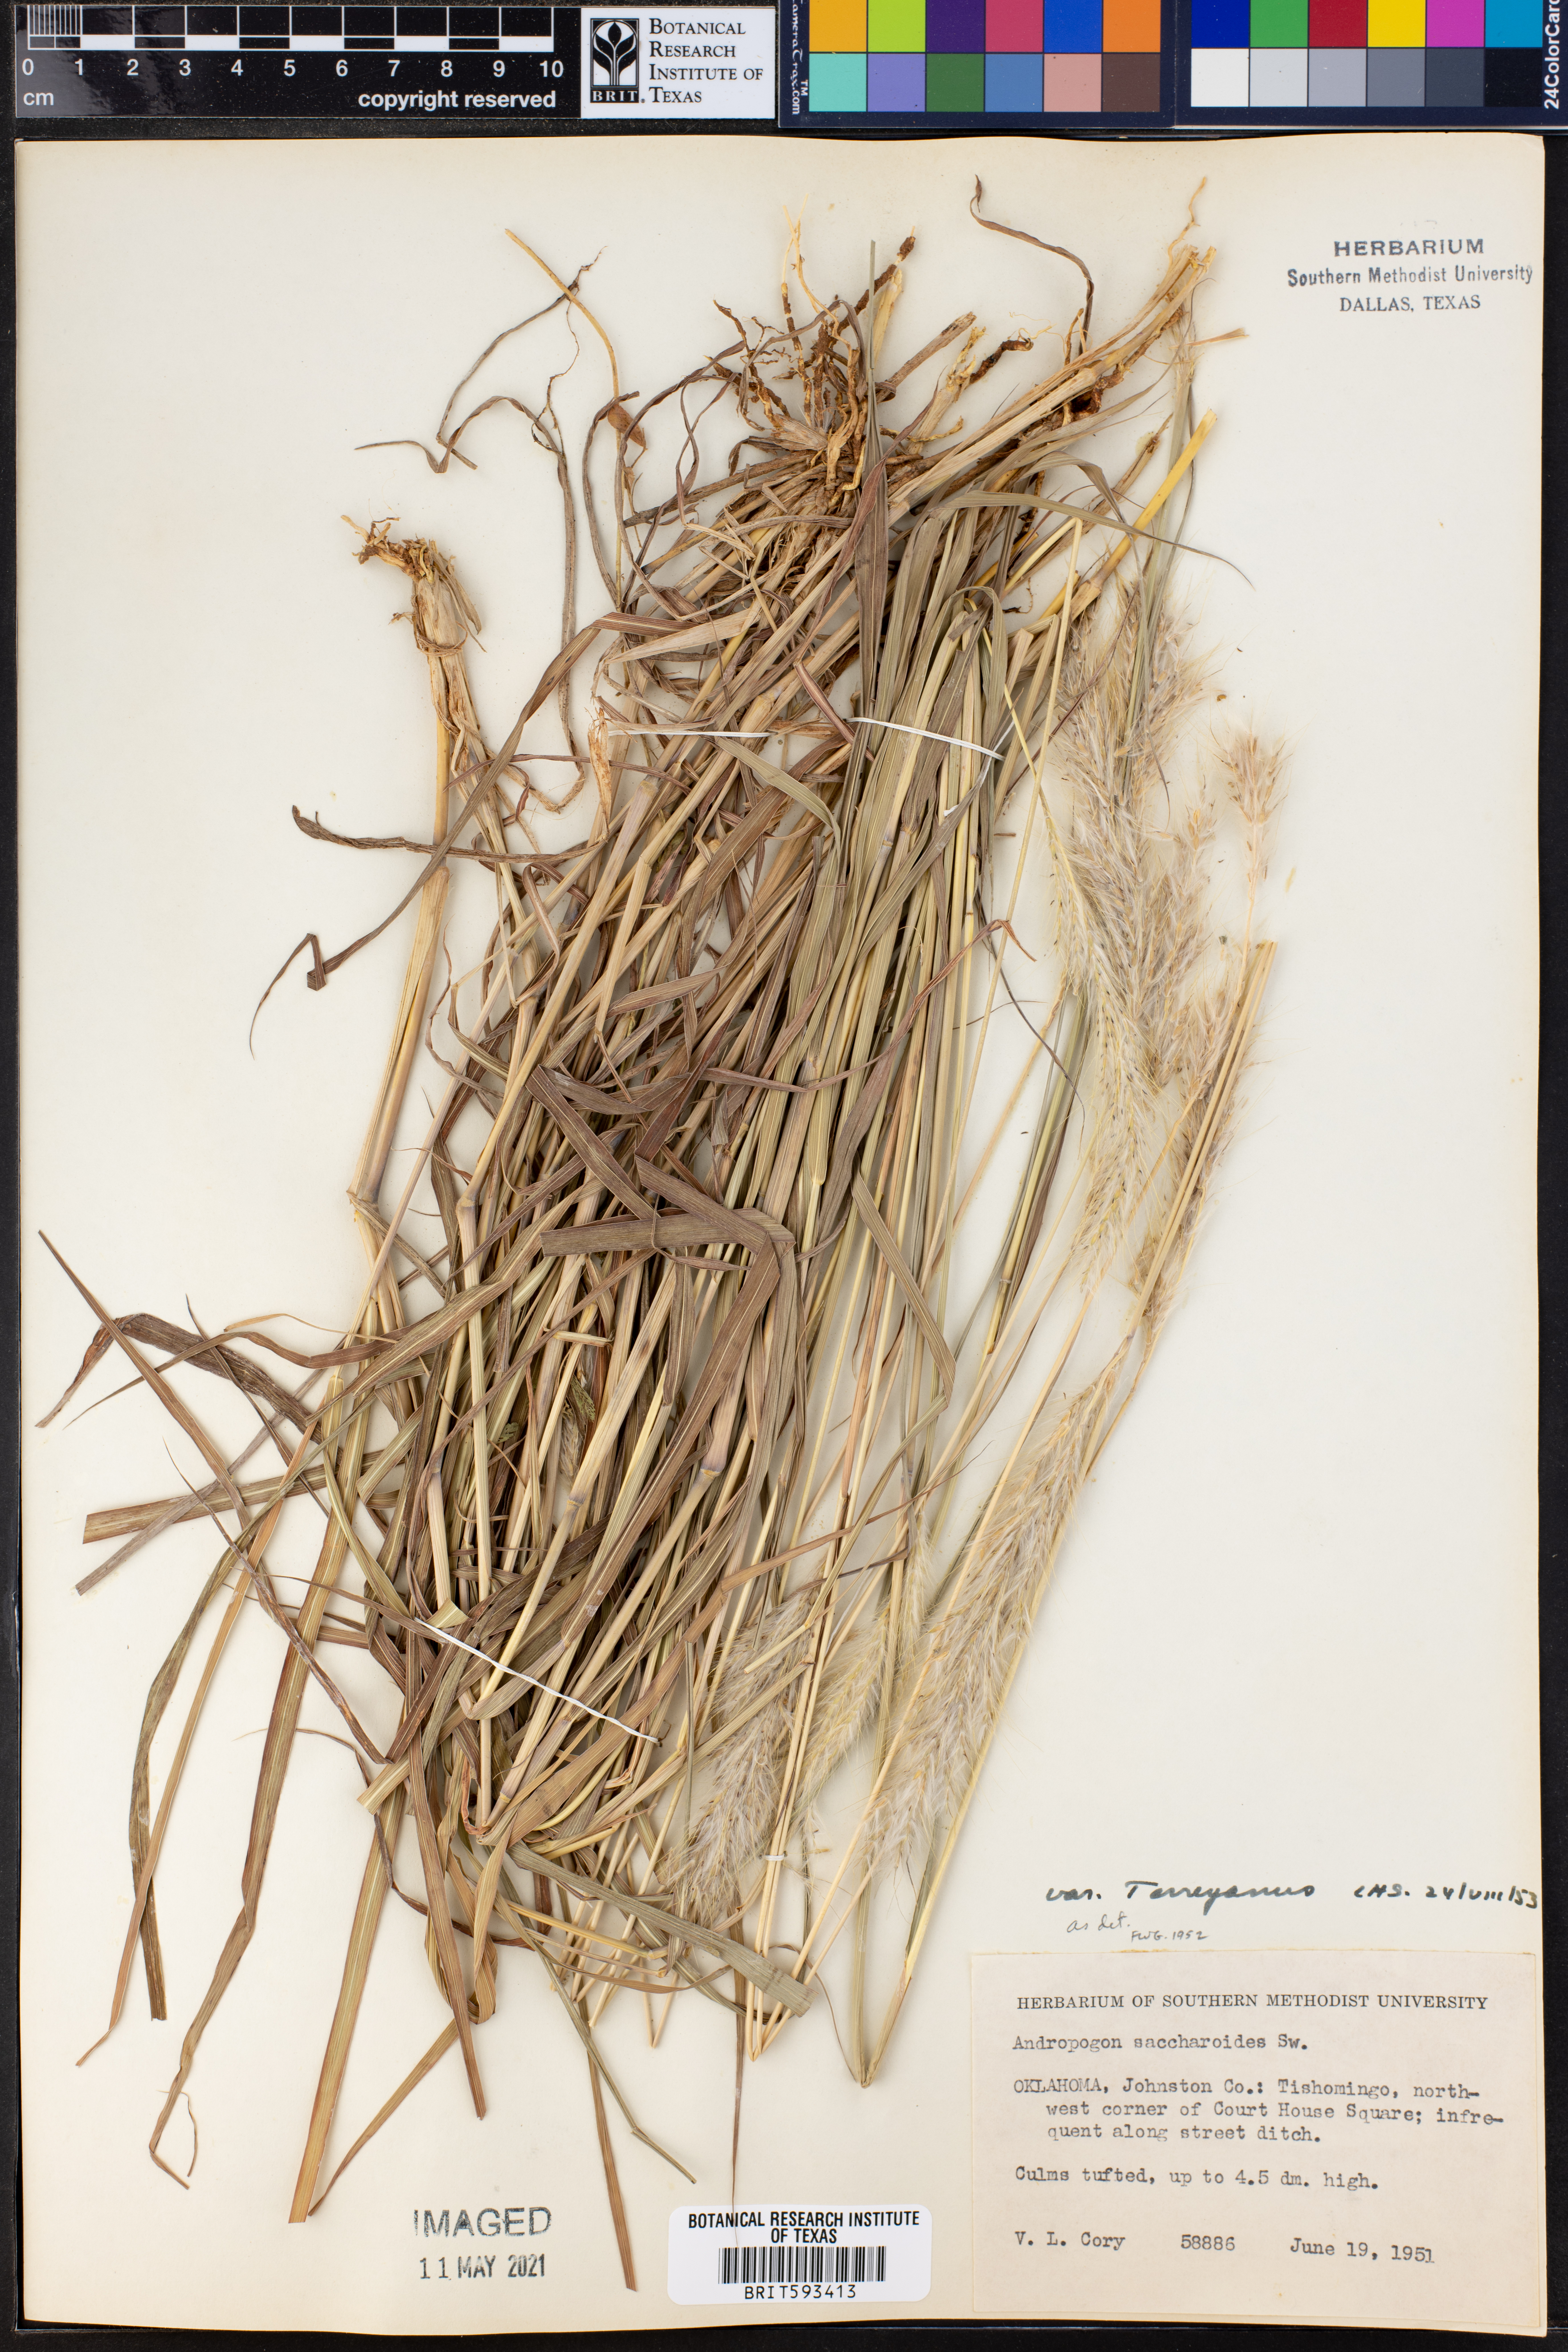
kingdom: Plantae
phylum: Tracheophyta
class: Liliopsida
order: Poales
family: Poaceae
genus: Bothriochloa
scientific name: Bothriochloa saccharoides
